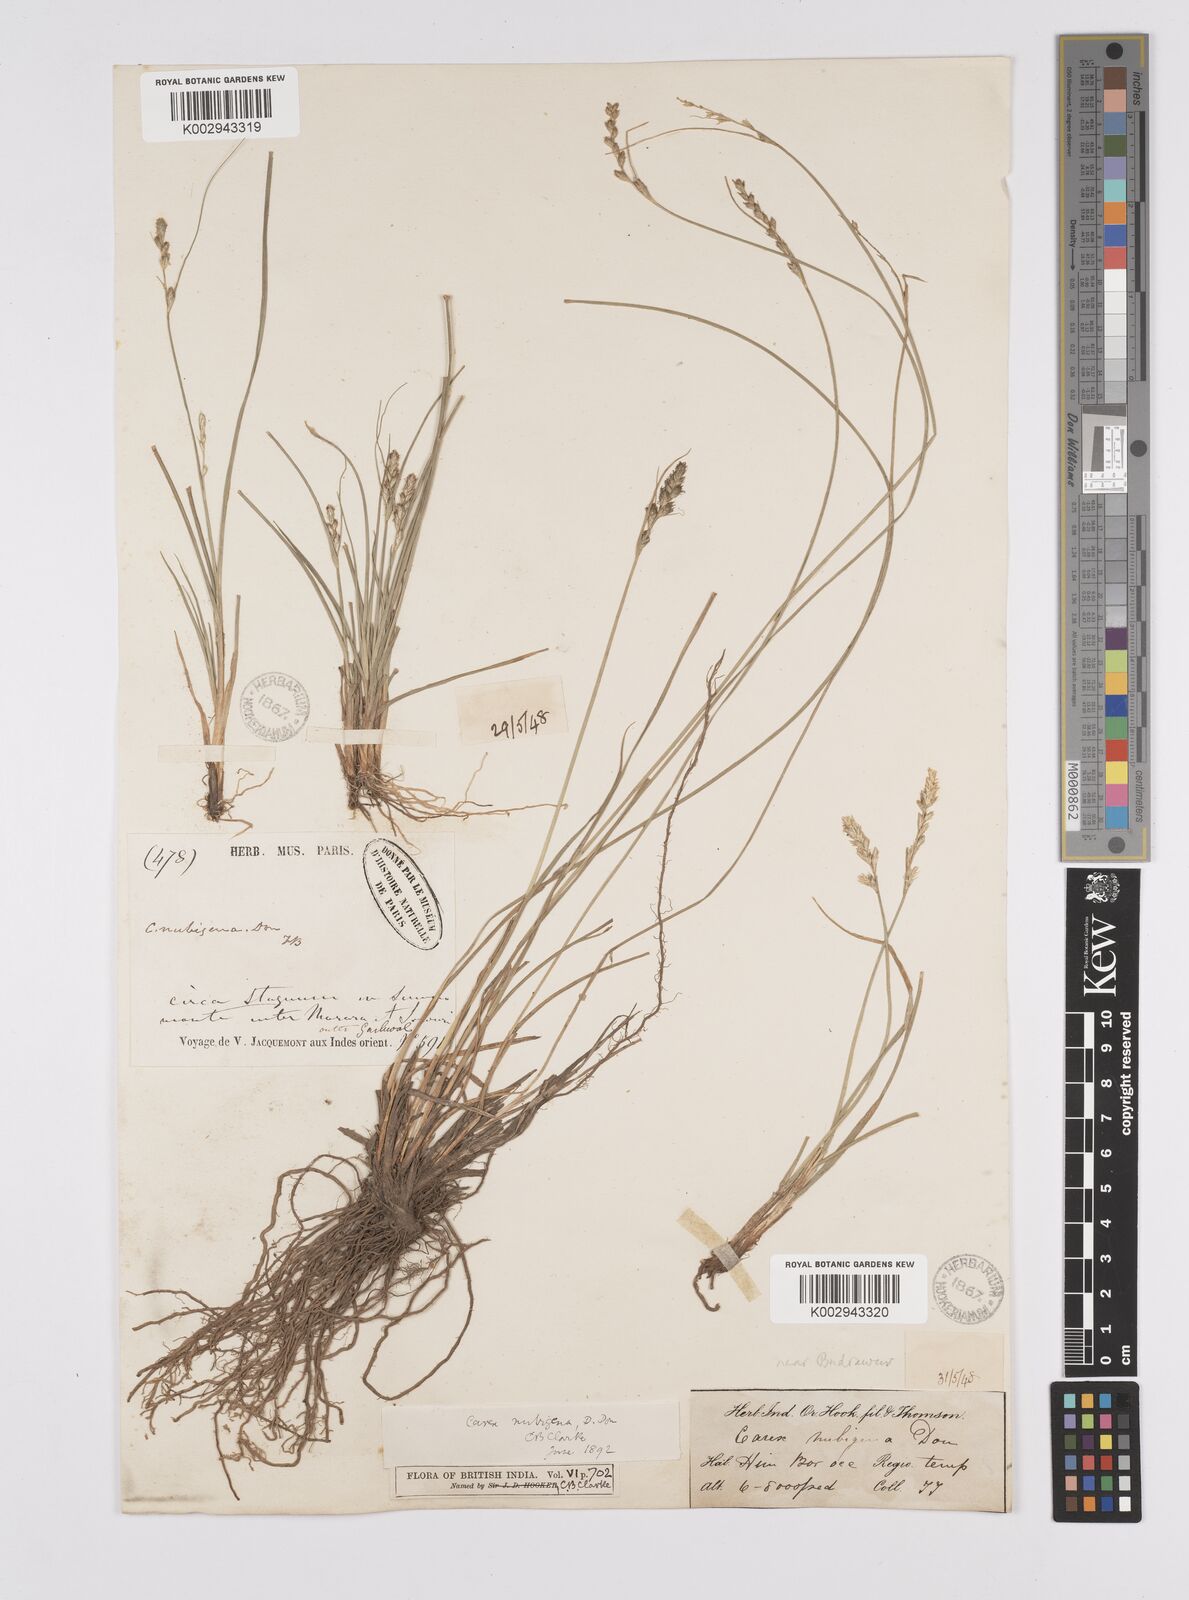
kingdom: Plantae
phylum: Tracheophyta
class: Liliopsida
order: Poales
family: Cyperaceae
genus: Carex
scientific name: Carex nubigena
